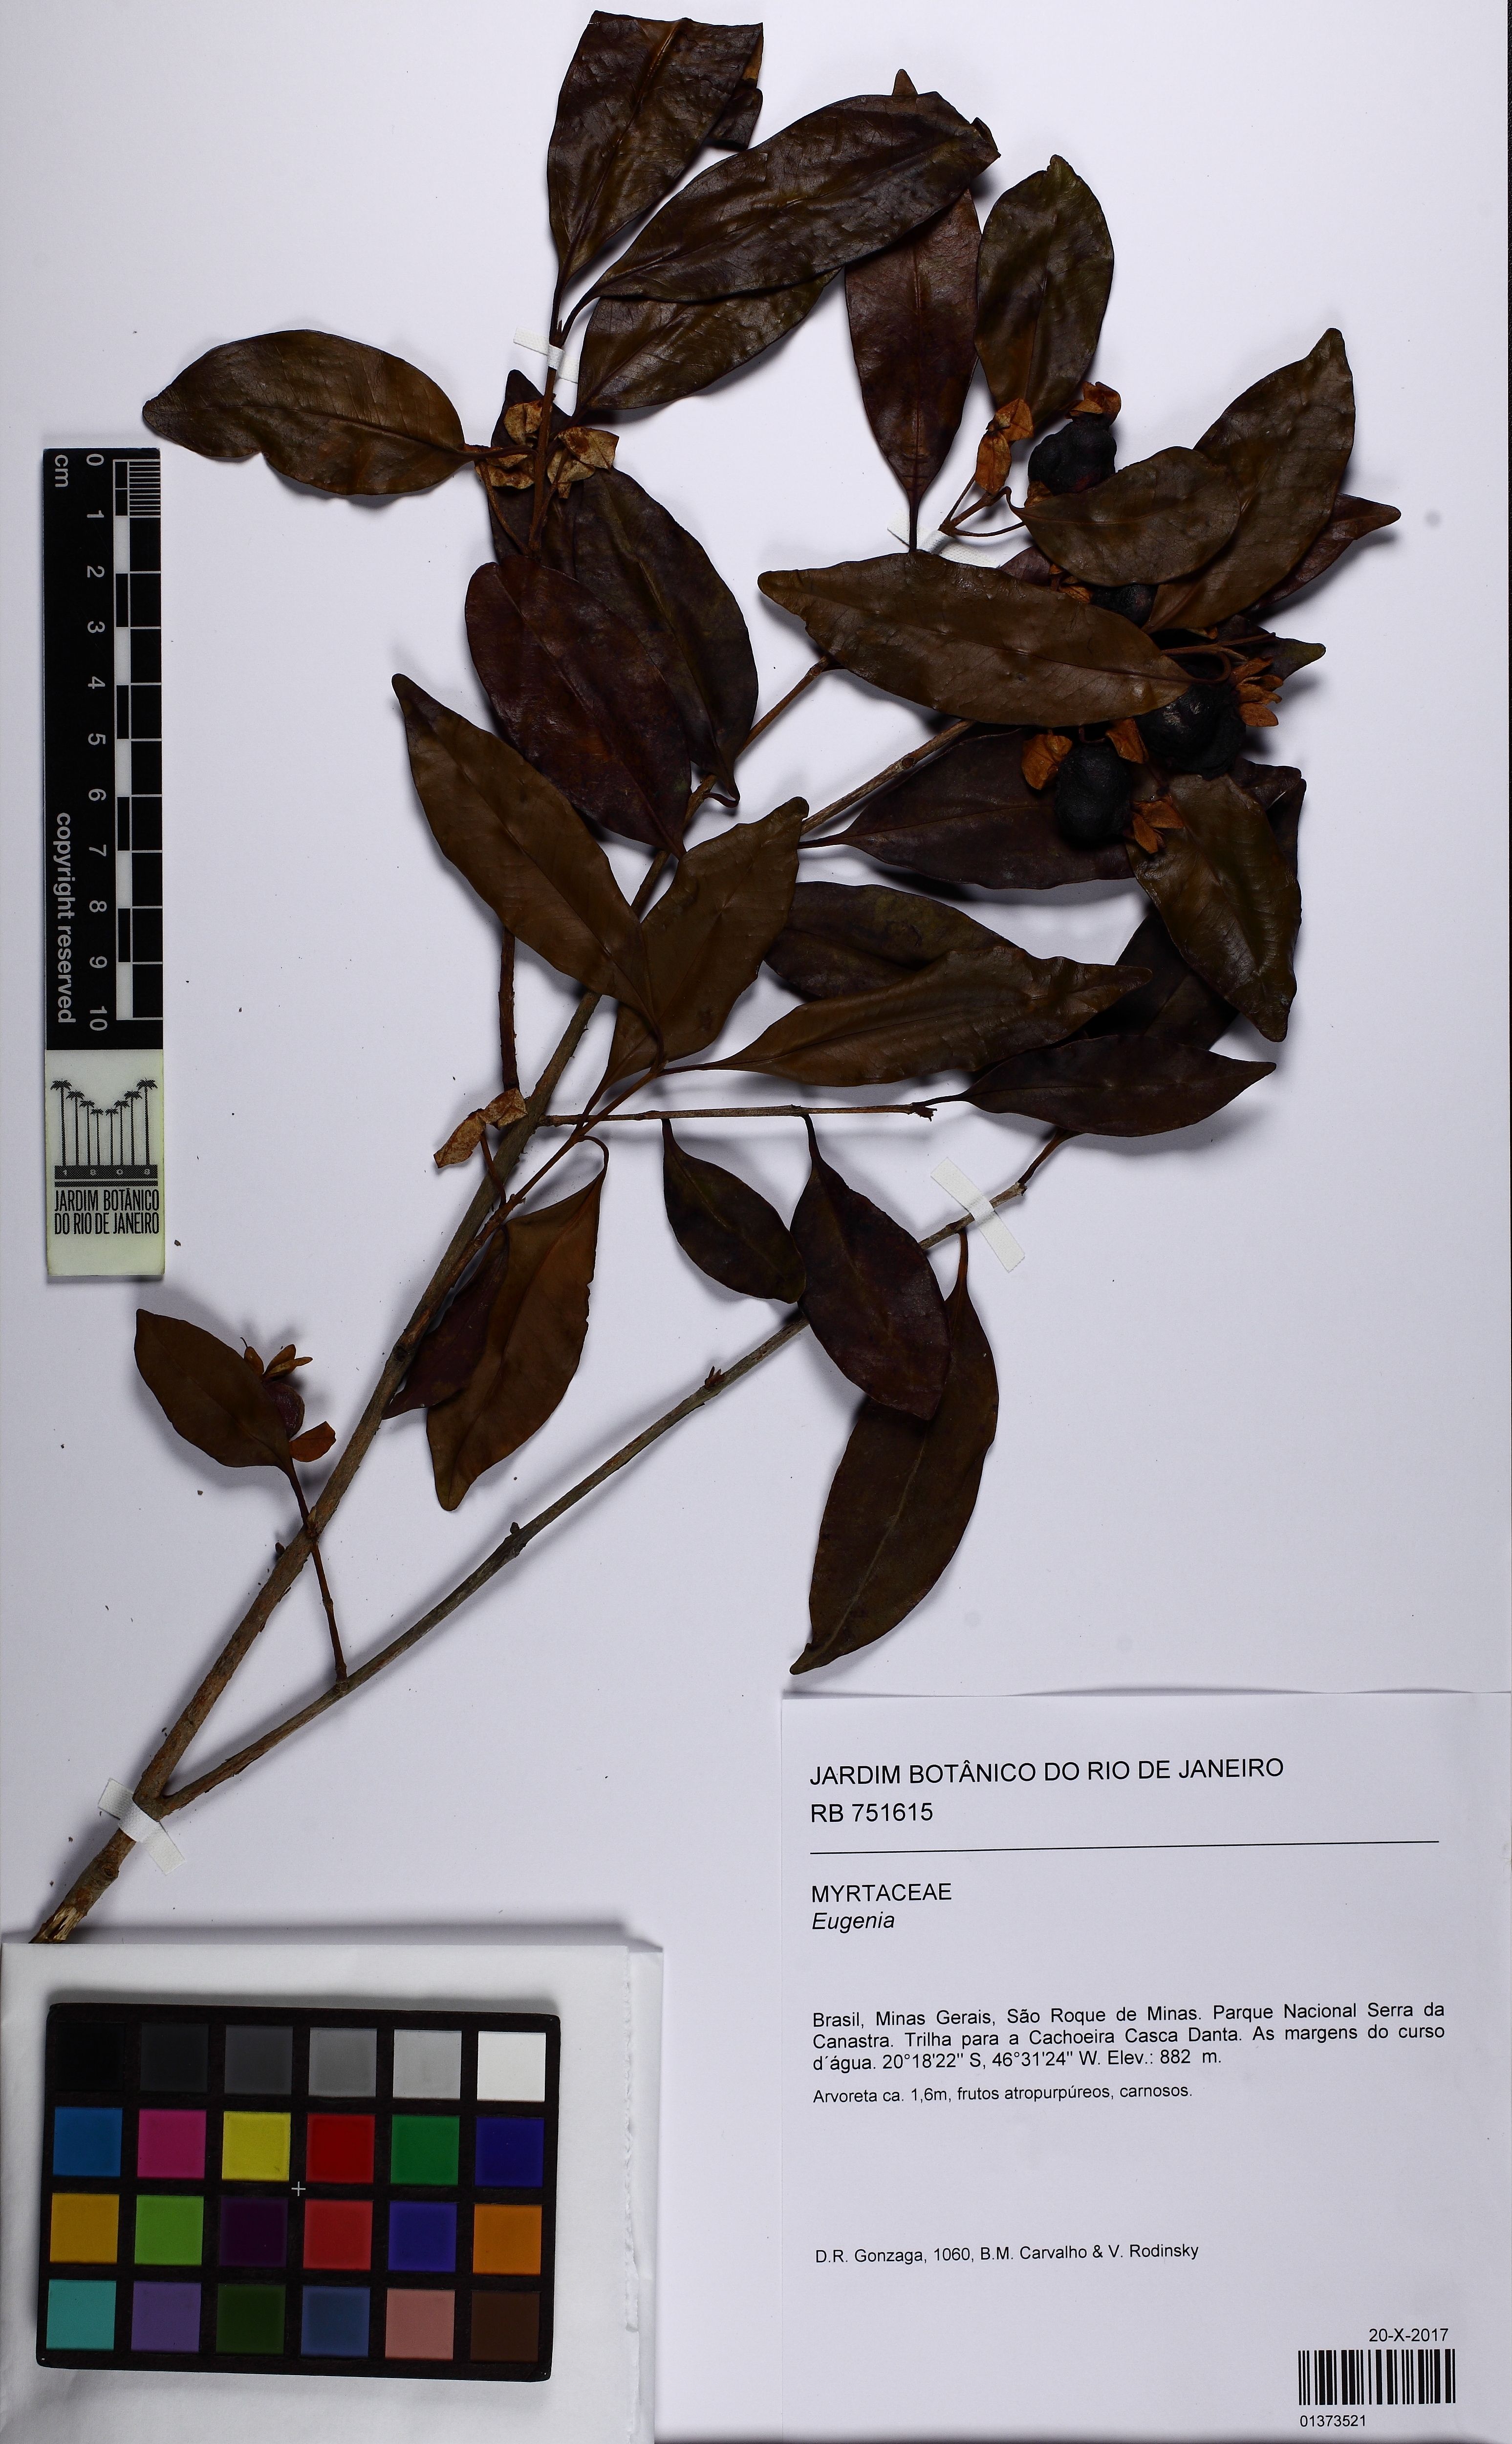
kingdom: Plantae
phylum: Tracheophyta
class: Magnoliopsida
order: Myrtales
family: Myrtaceae
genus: Eugenia
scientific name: Eugenia involucrata
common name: Cherry-of-the-rio grande
